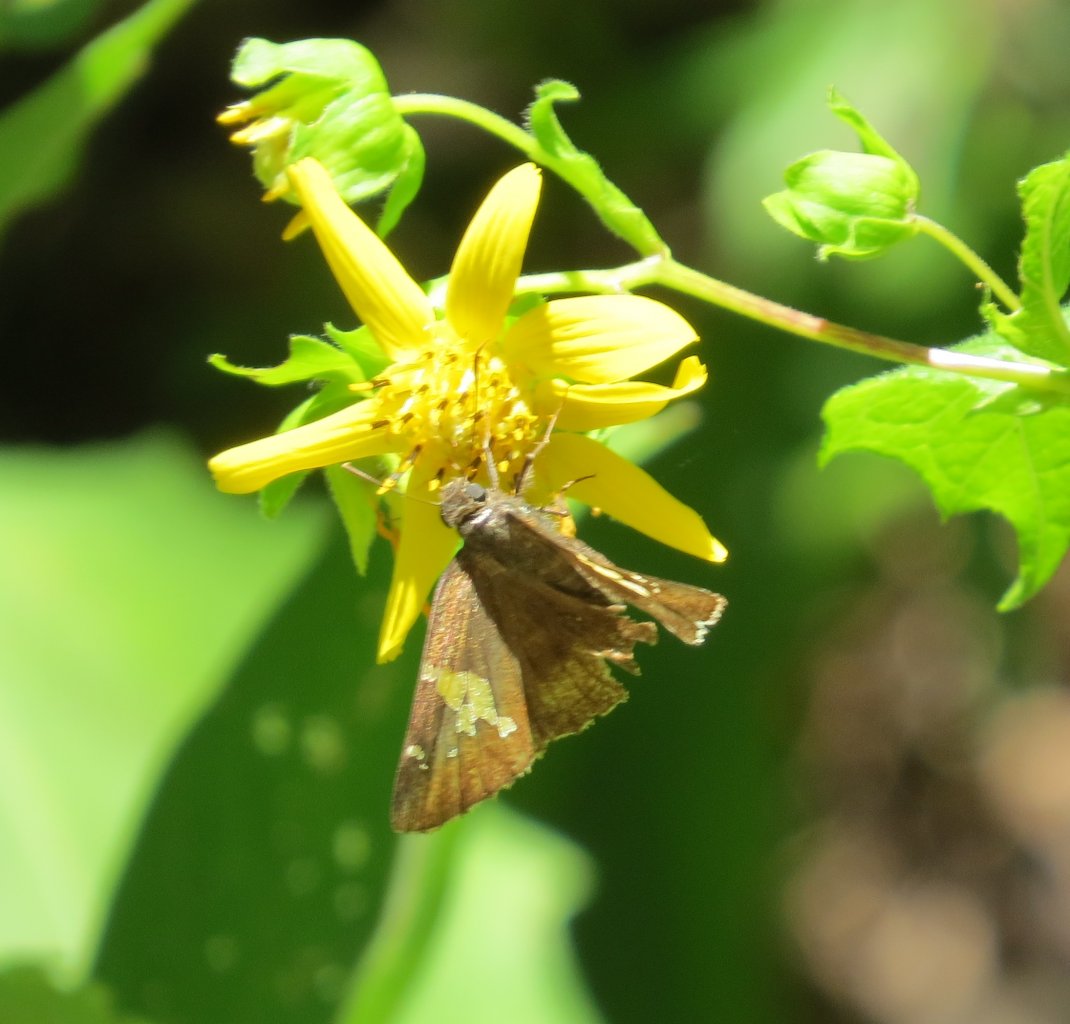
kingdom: Animalia
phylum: Arthropoda
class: Insecta
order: Lepidoptera
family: Hesperiidae
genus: Achalarus
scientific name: Achalarus lyciades
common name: Hoary Edge
